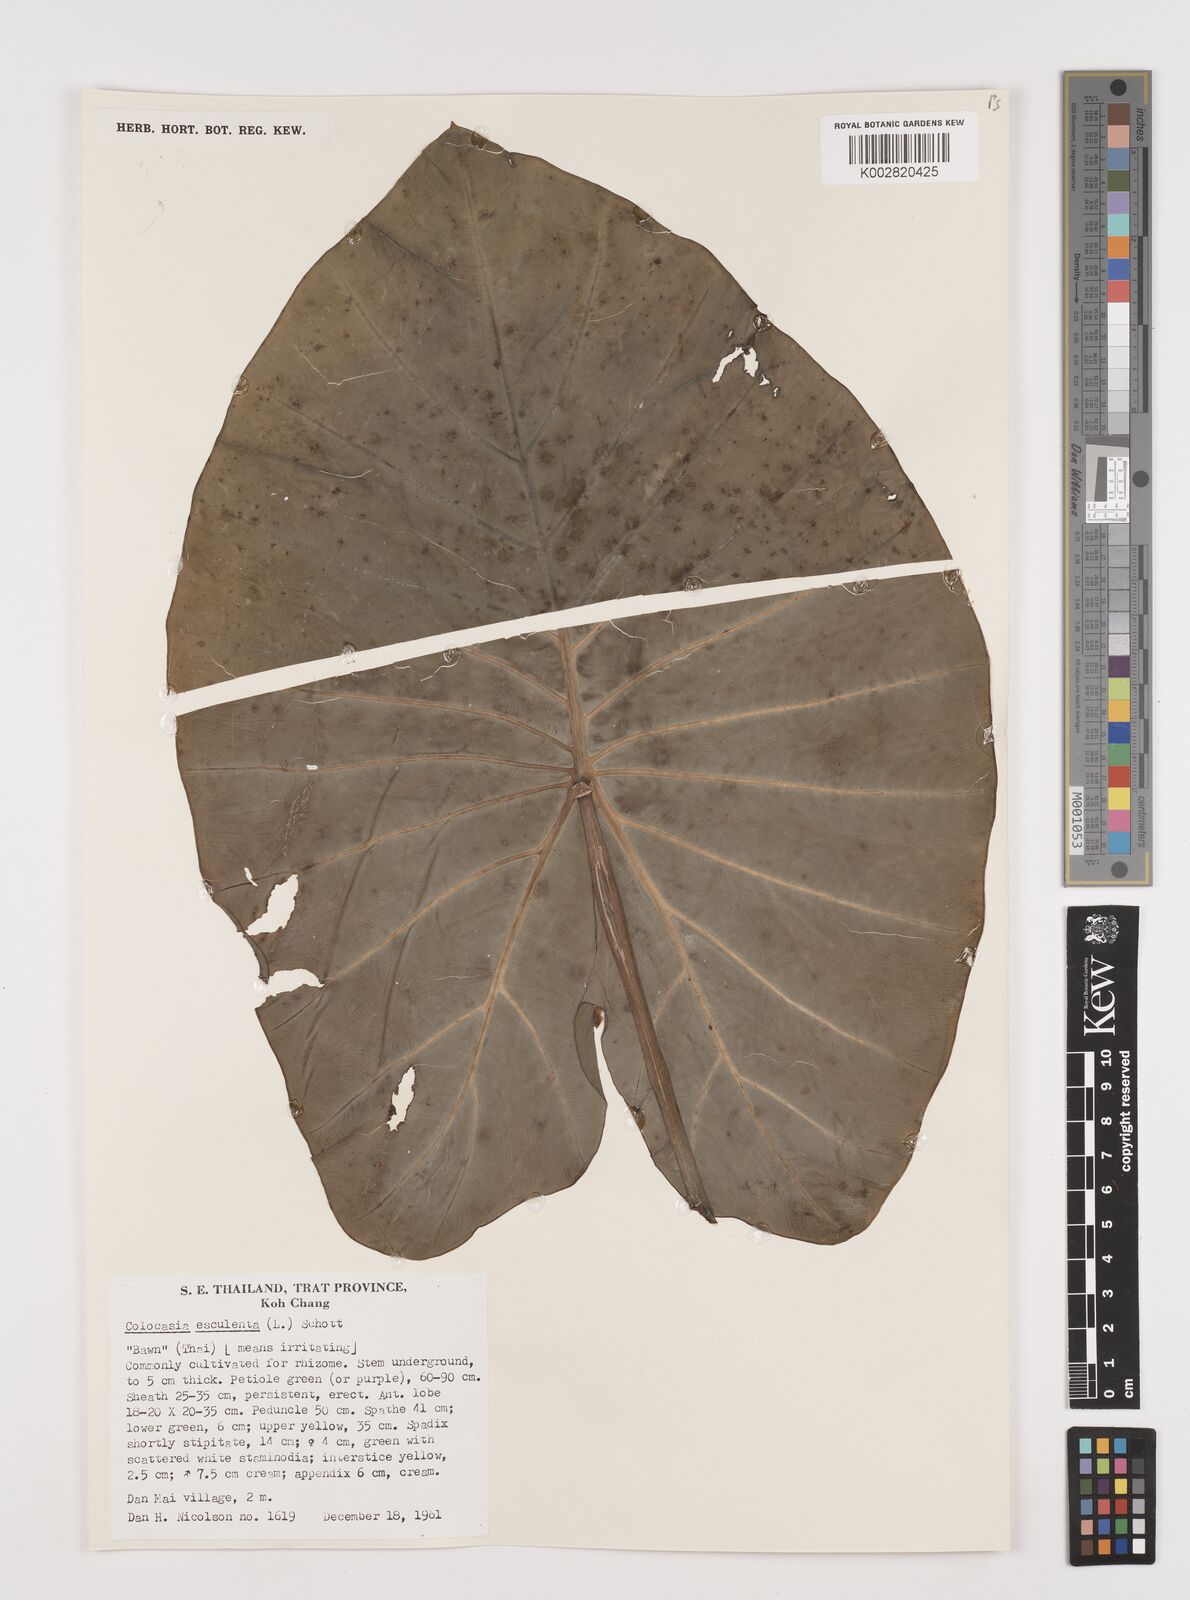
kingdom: Plantae
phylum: Tracheophyta
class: Liliopsida
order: Alismatales
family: Araceae
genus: Colocasia
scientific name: Colocasia esculenta
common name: Taro
